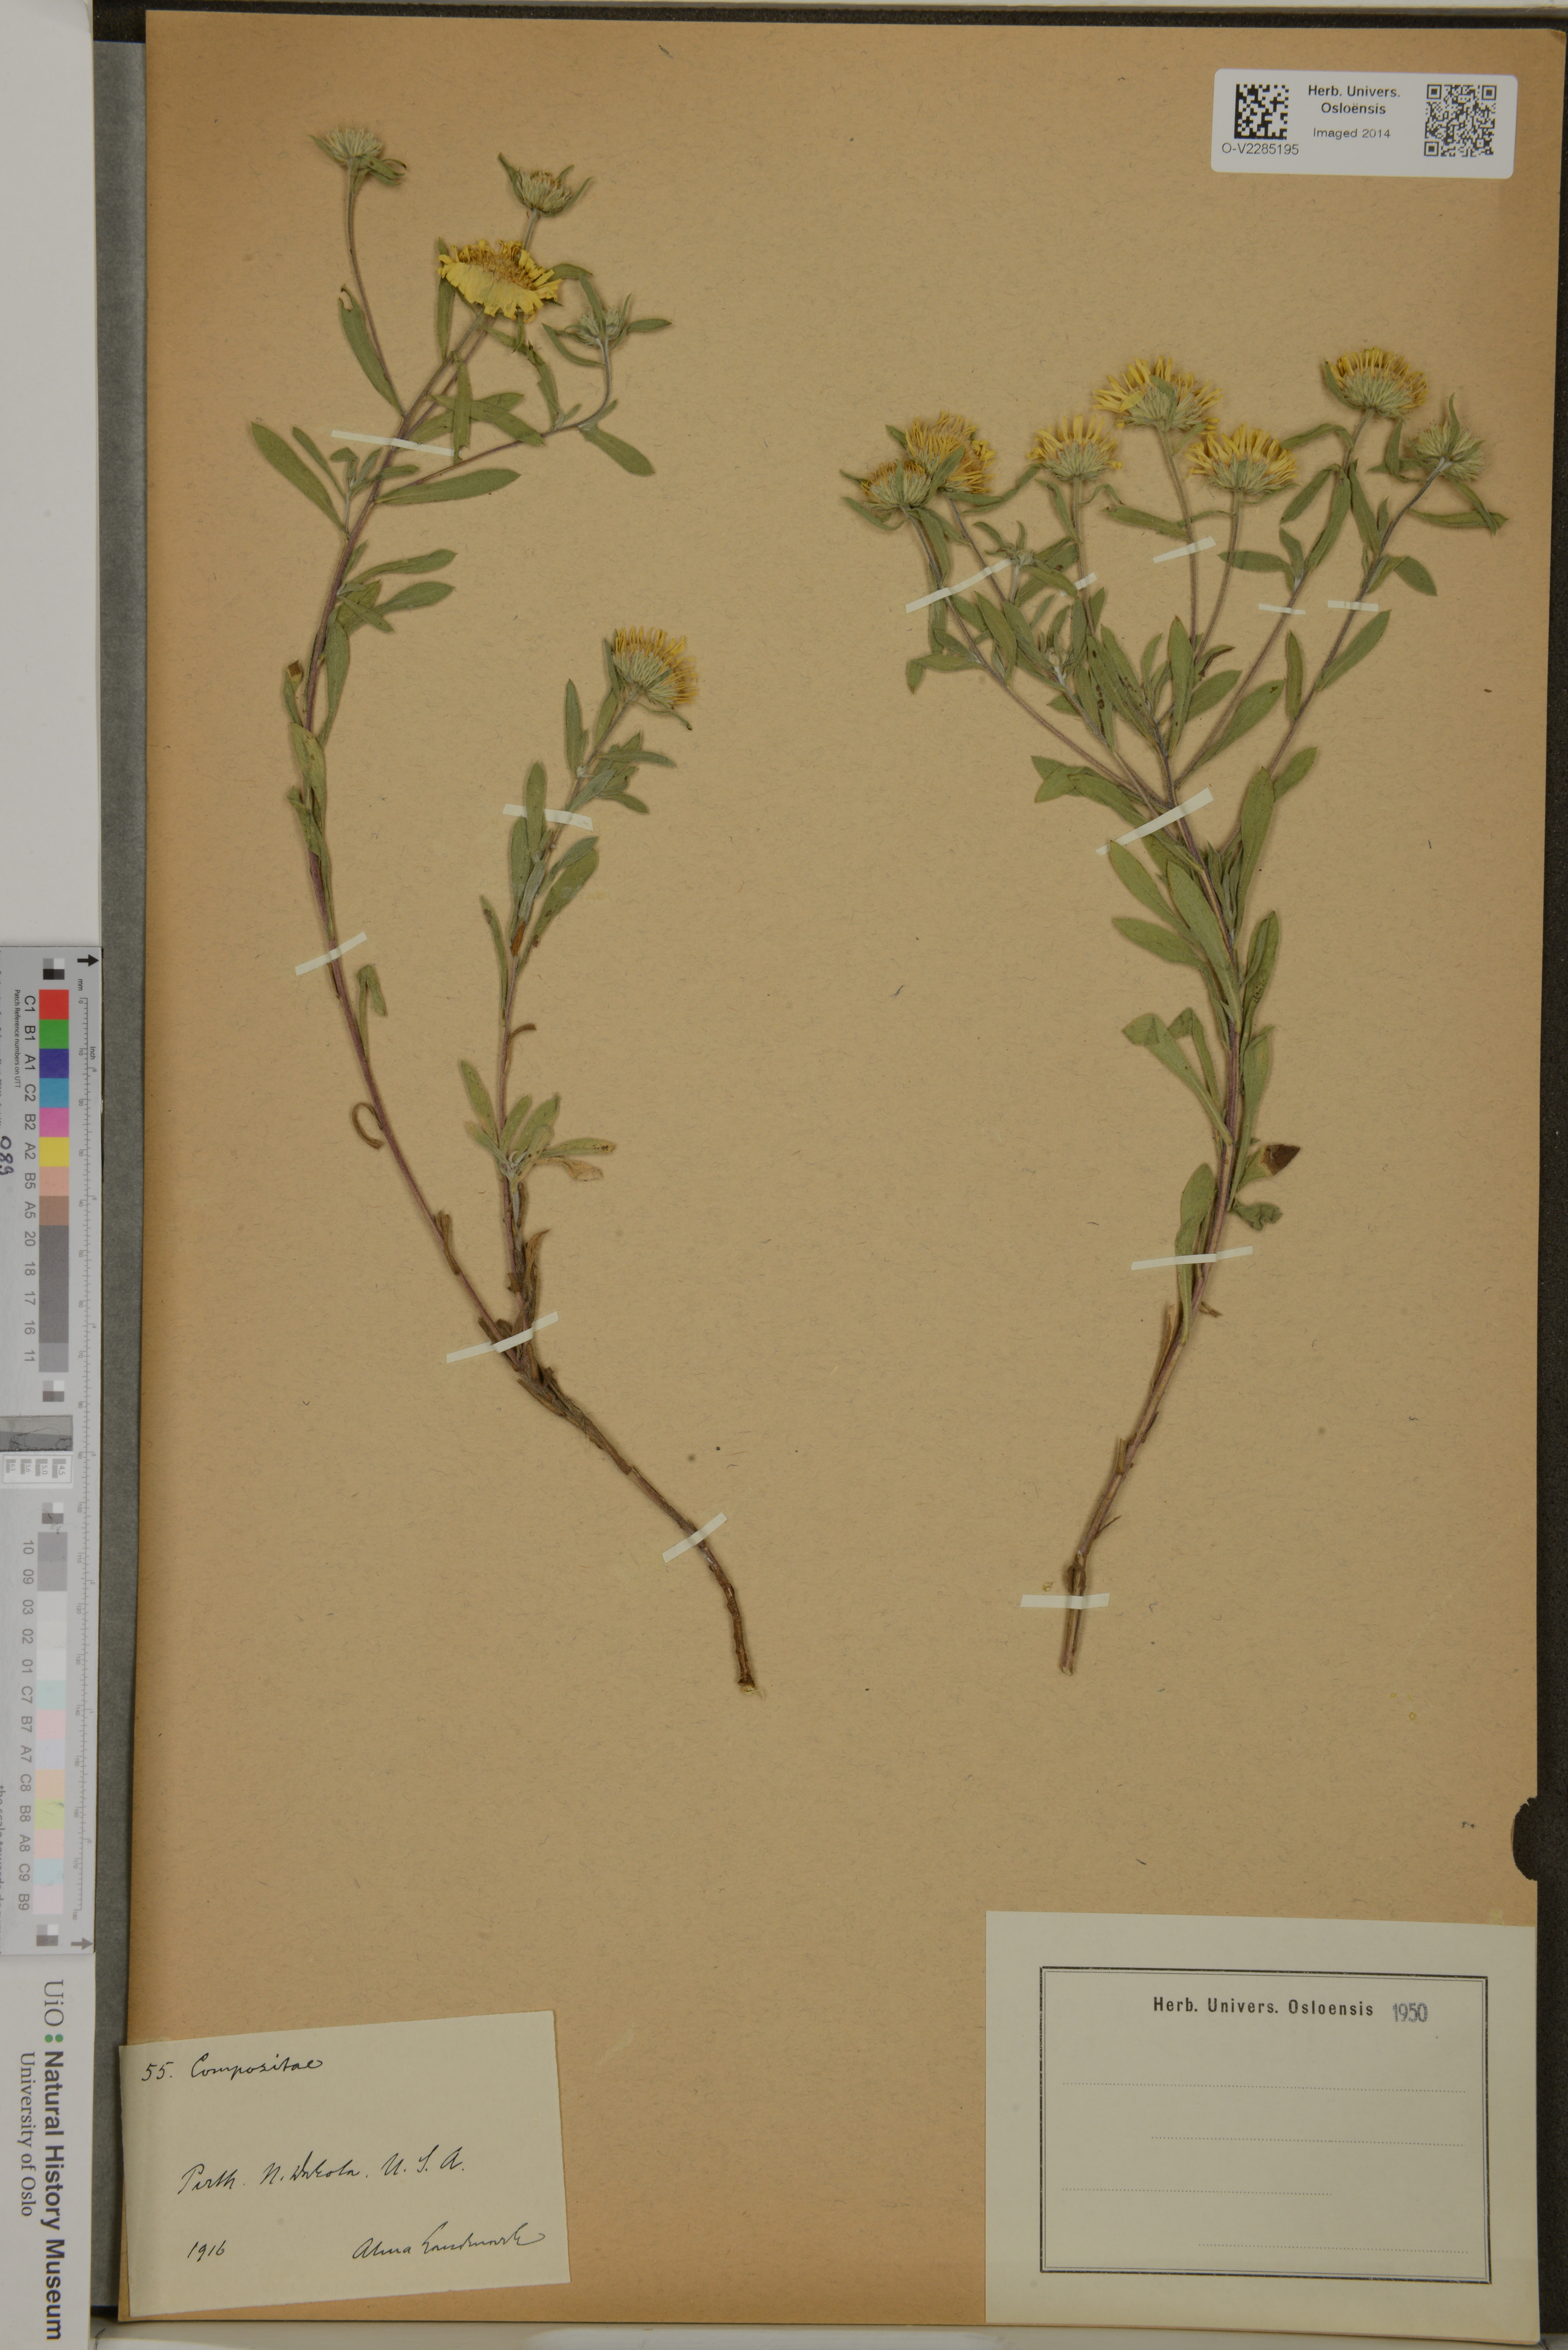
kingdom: Plantae
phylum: Tracheophyta
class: Magnoliopsida
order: Asterales
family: Asteraceae
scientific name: Asteraceae
